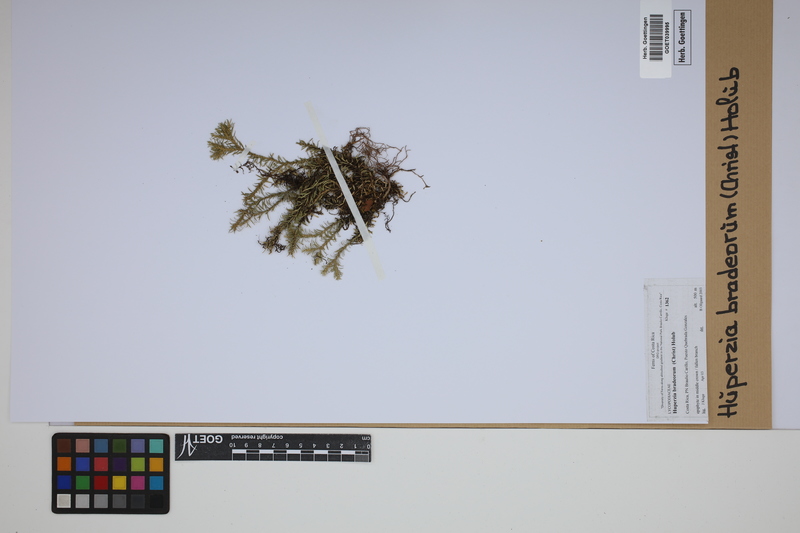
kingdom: Plantae
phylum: Tracheophyta
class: Lycopodiopsida
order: Lycopodiales
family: Lycopodiaceae
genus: Phlegmariurus
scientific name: Phlegmariurus bradeorum
